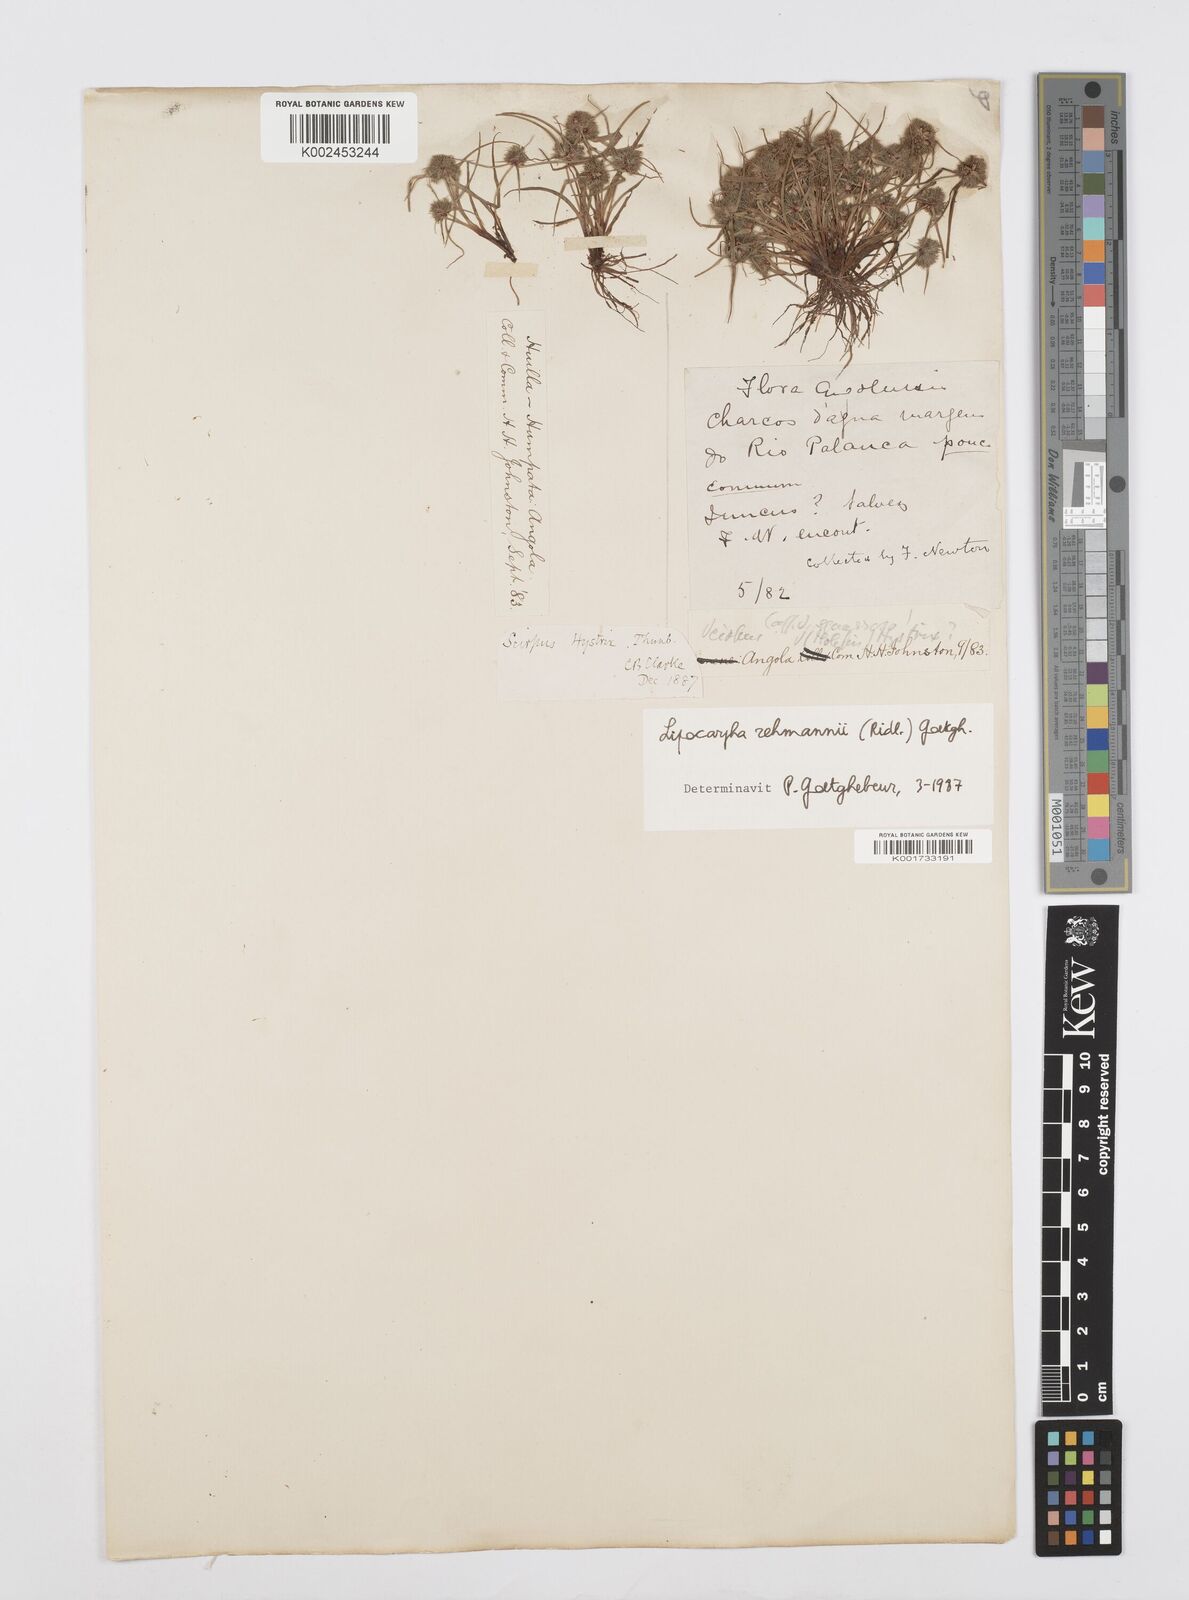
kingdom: Plantae
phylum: Tracheophyta
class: Liliopsida
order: Poales
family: Cyperaceae
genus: Cyperus
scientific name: Cyperus sanguinolentus
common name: Purpleglume flatsedge
